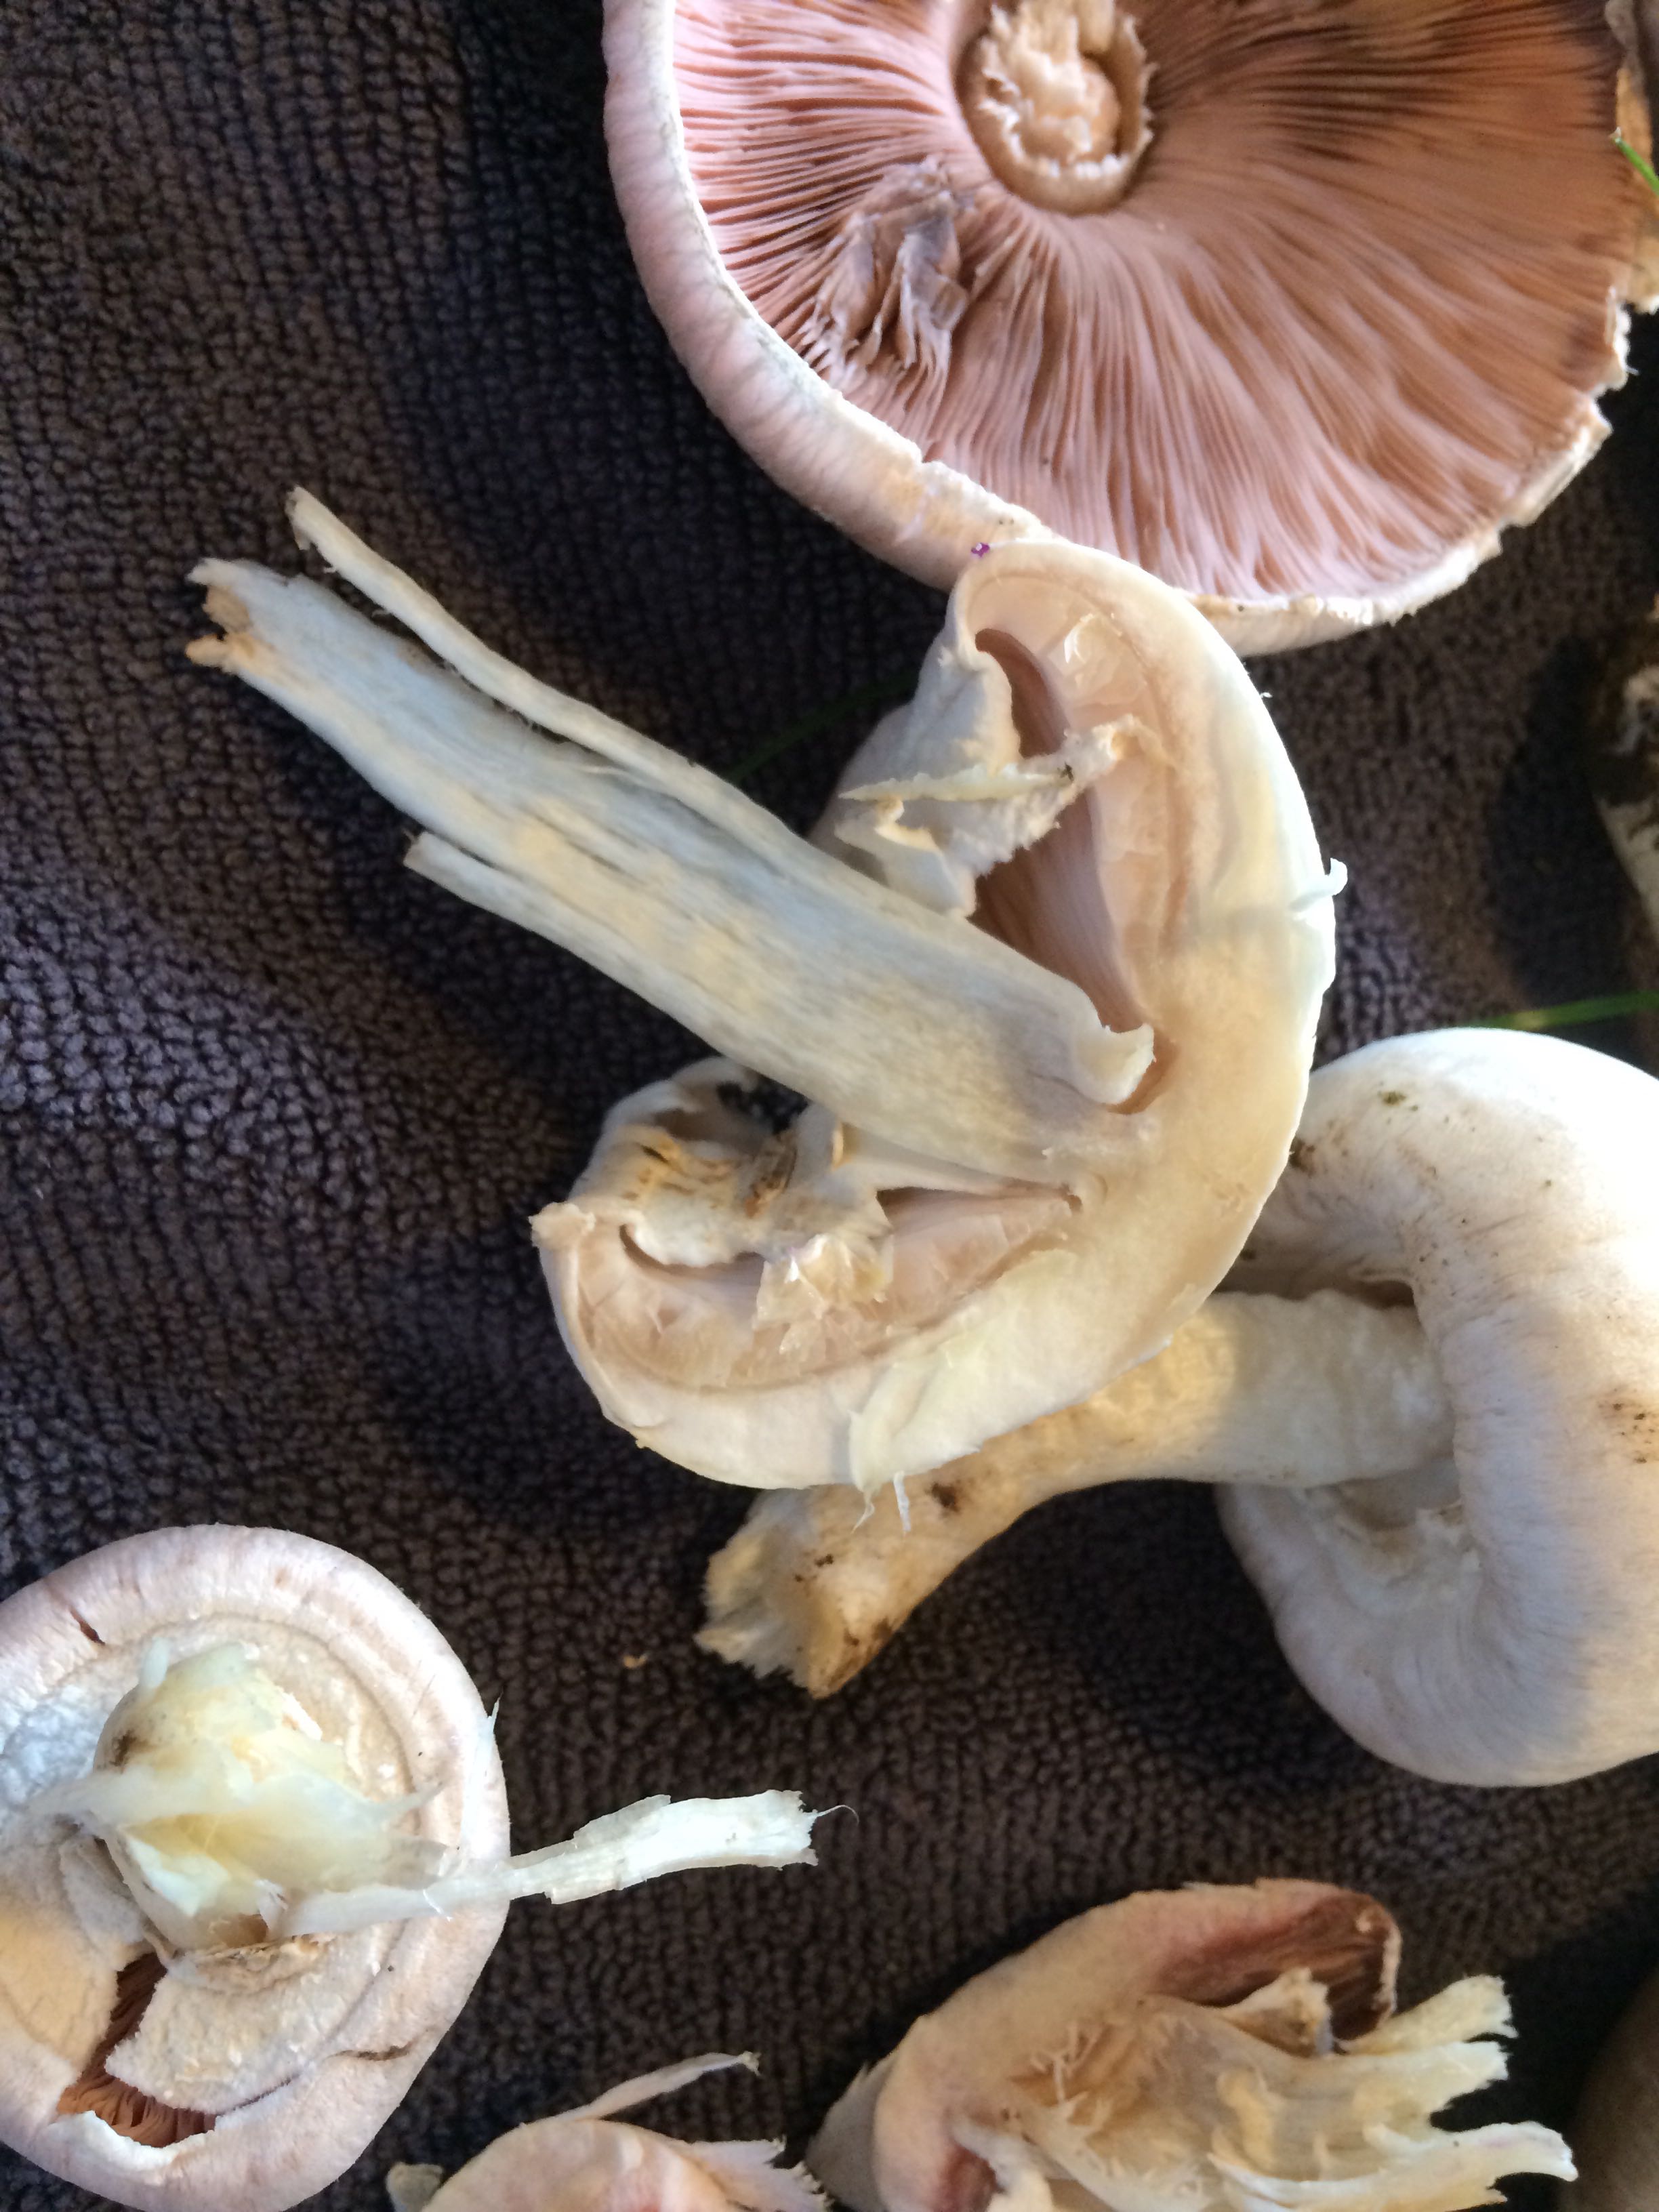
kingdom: Fungi
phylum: Basidiomycota
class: Agaricomycetes
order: Agaricales
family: Agaricaceae
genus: Agaricus
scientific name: Agaricus xanthodermus
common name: karbol-champignon
